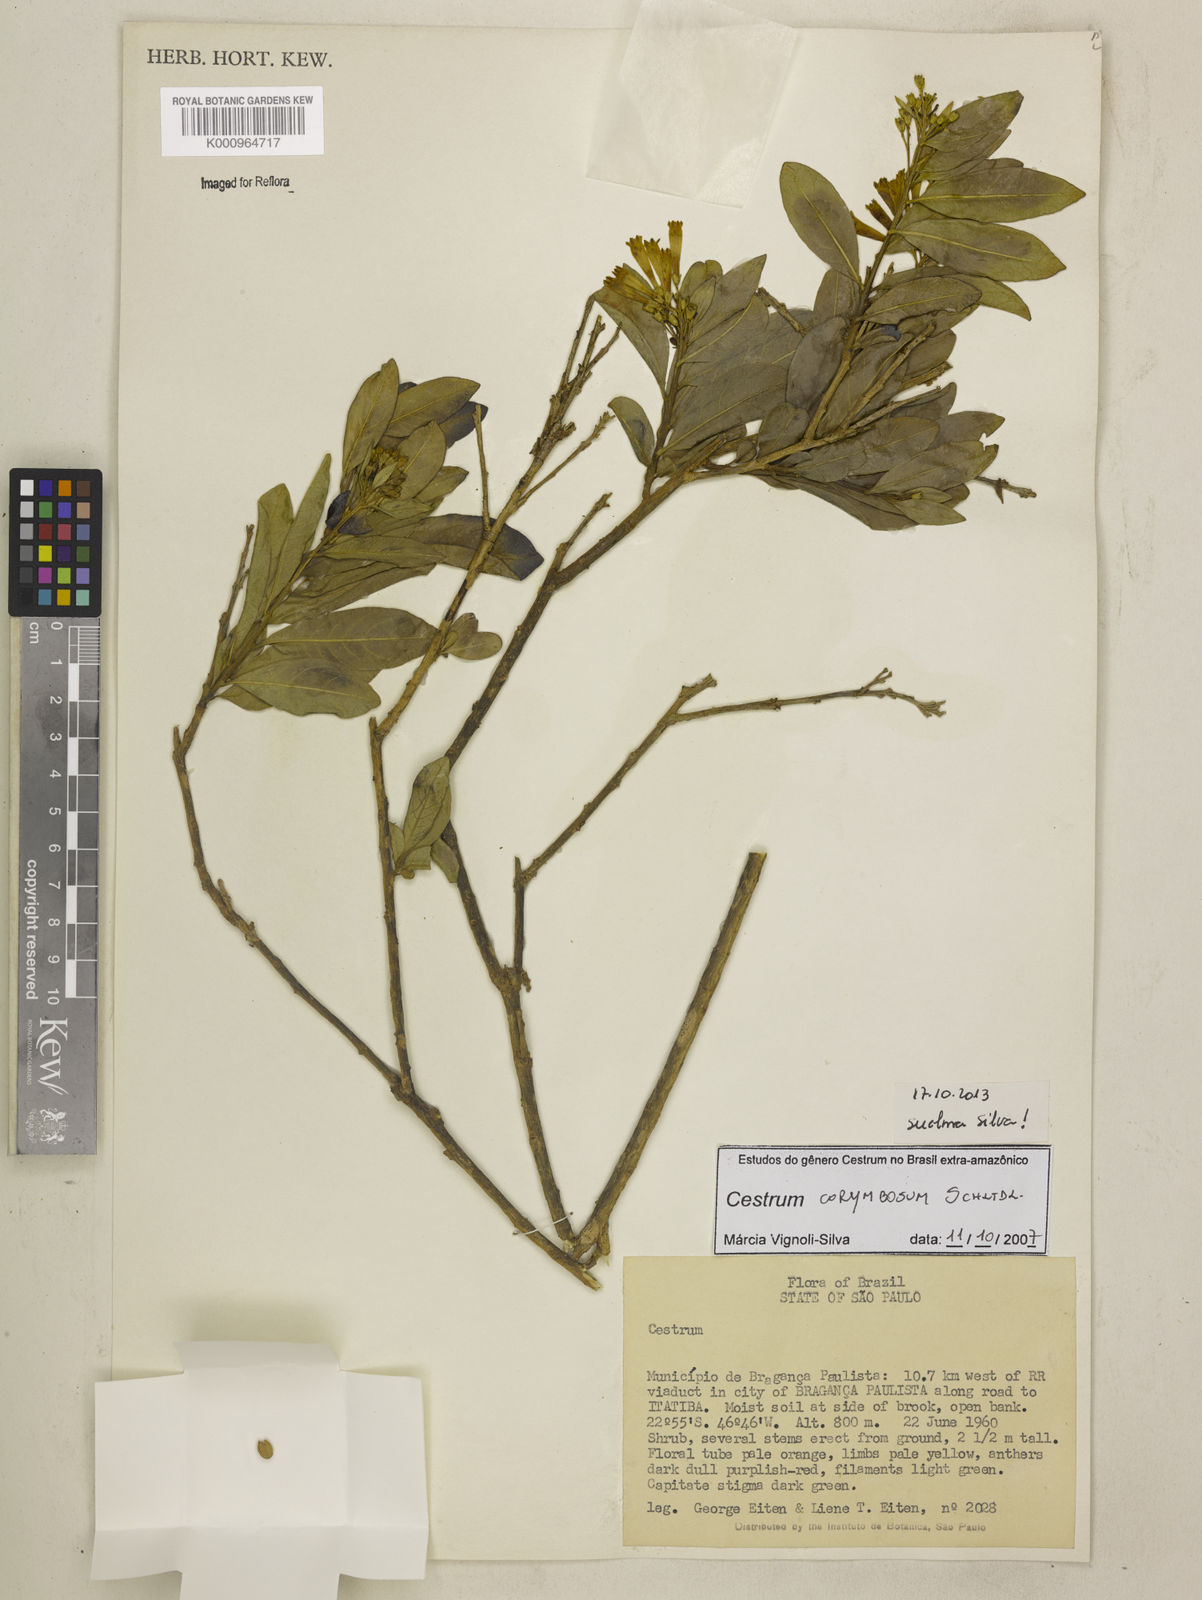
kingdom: Plantae
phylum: Tracheophyta
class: Magnoliopsida
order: Solanales
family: Solanaceae
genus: Cestrum
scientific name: Cestrum corymbosum
